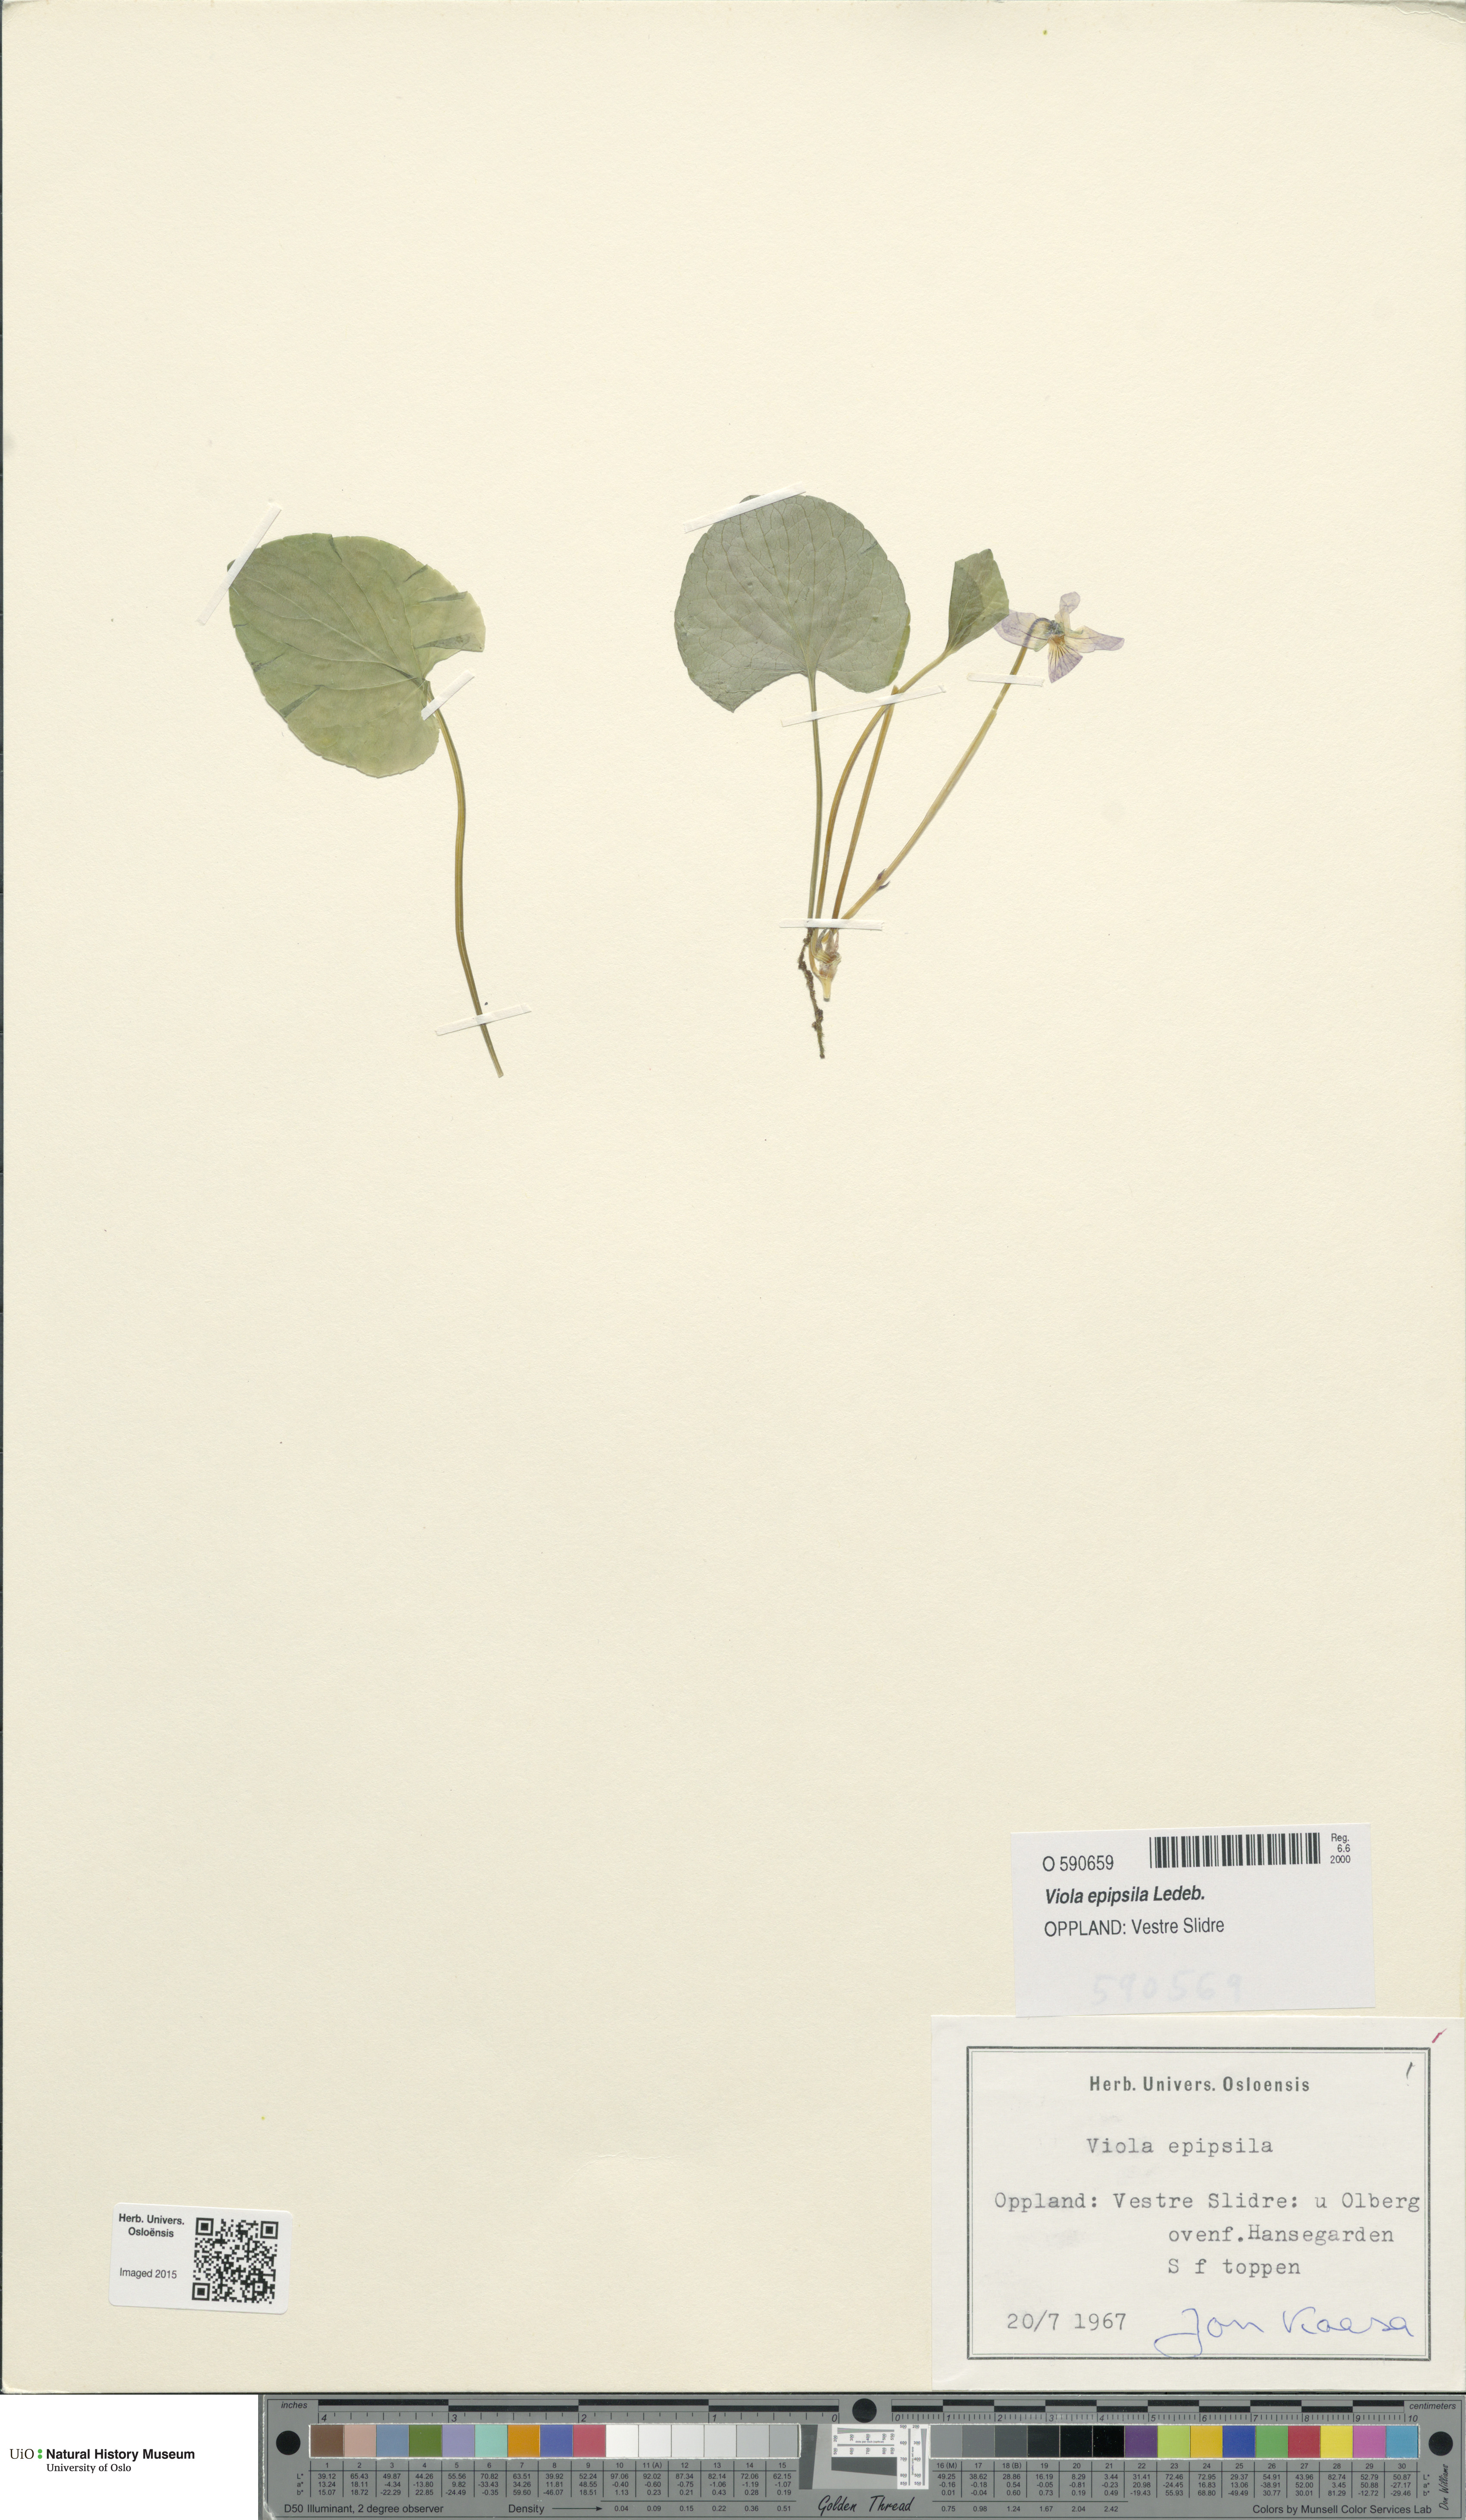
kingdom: Plantae
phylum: Tracheophyta
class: Magnoliopsida
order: Malpighiales
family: Violaceae
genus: Viola
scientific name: Viola epipsila
